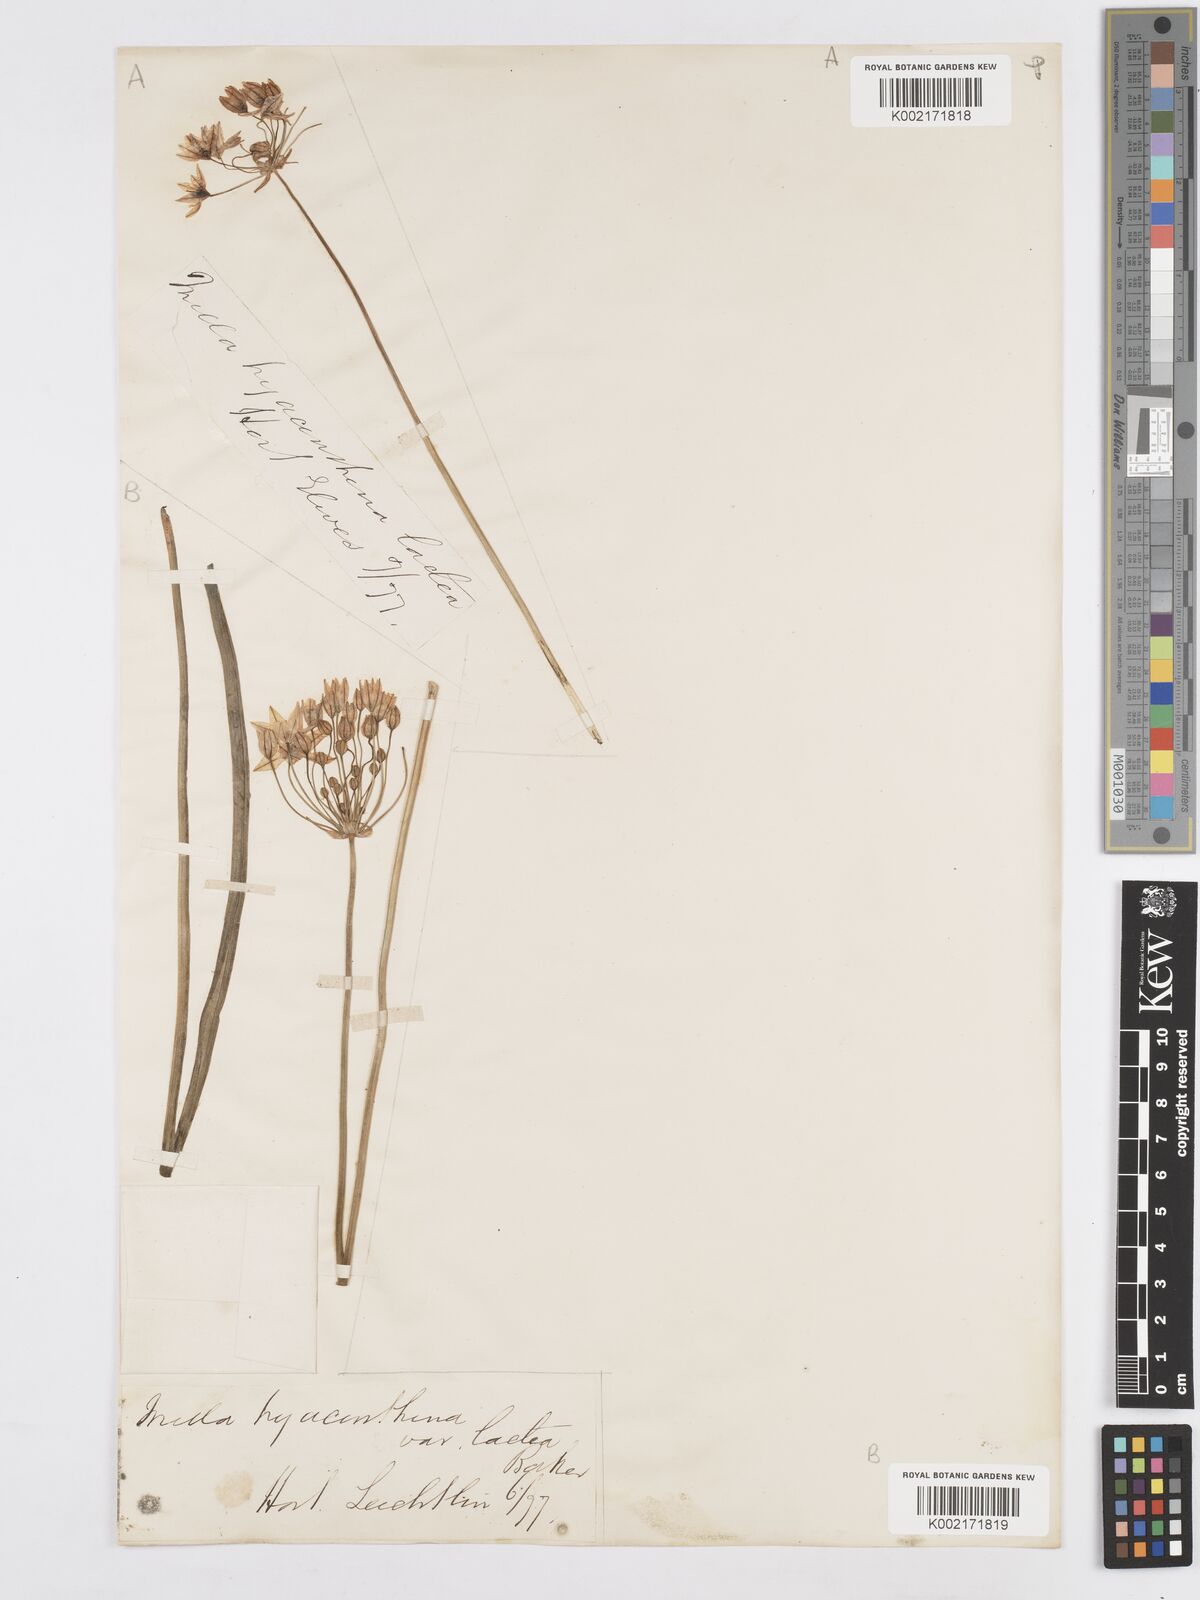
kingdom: Plantae
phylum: Tracheophyta
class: Liliopsida
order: Asparagales
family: Asparagaceae
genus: Triteleia
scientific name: Triteleia hyacinthina
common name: White brodiaea
